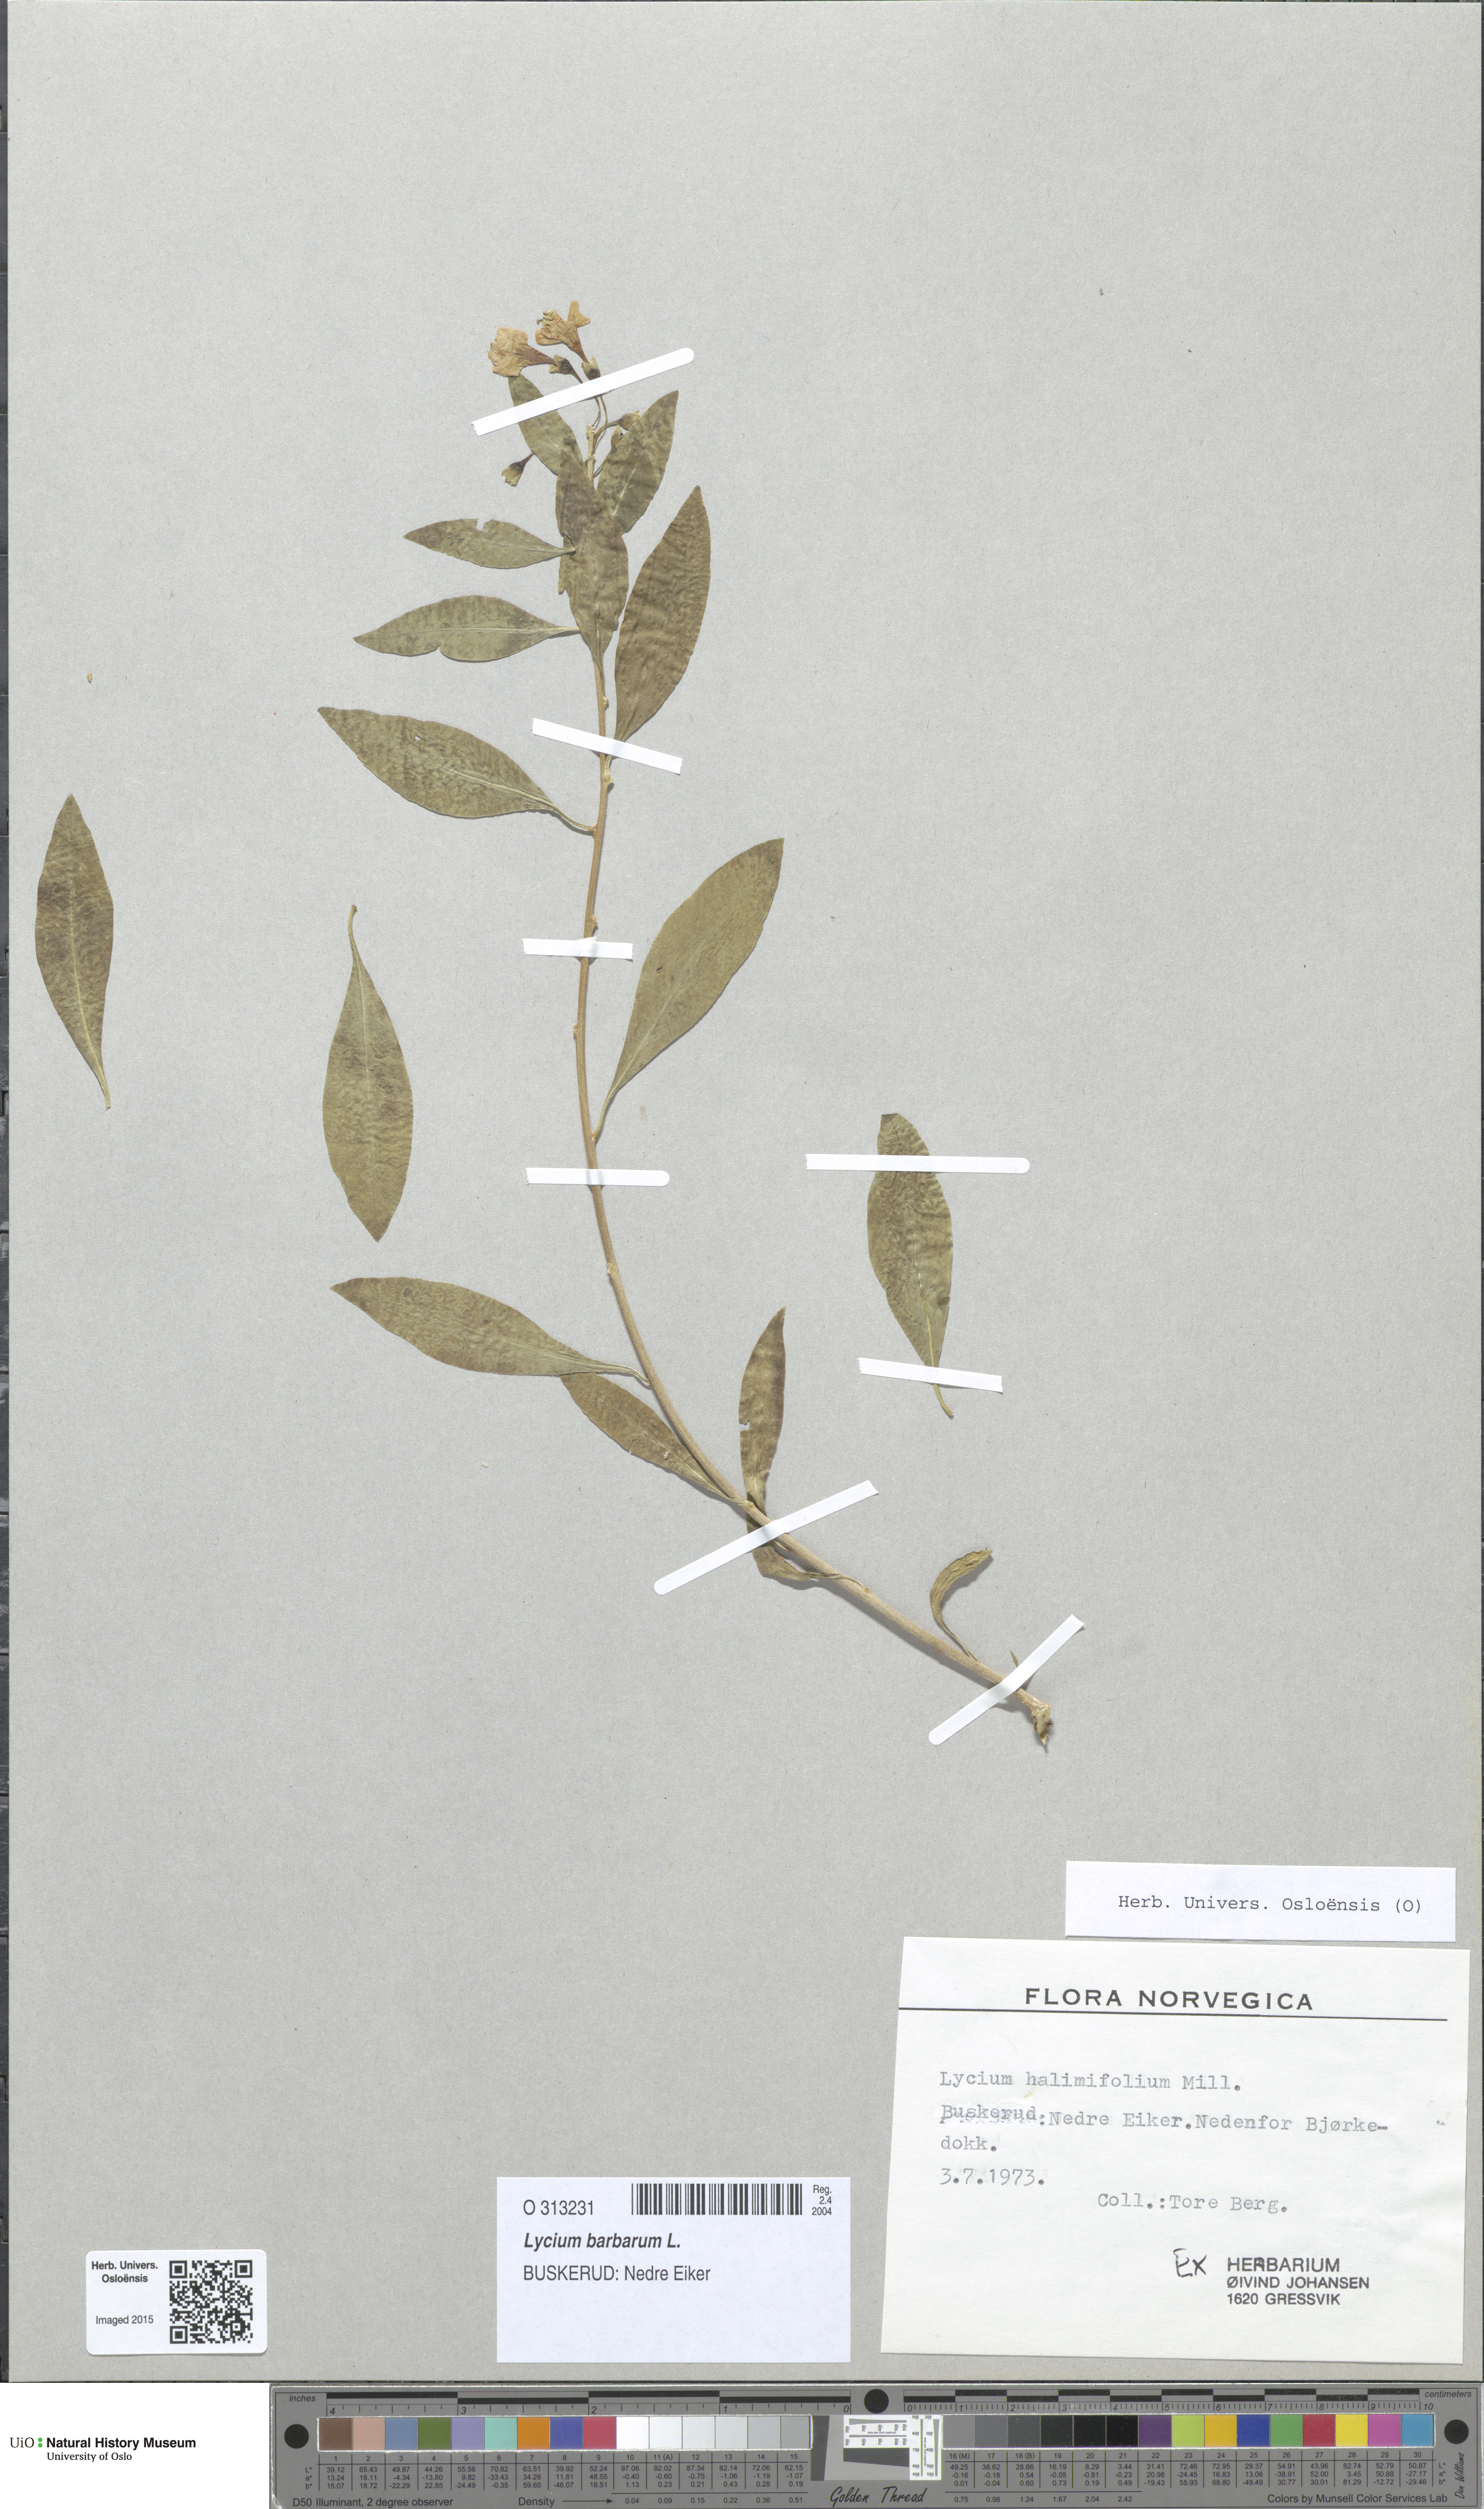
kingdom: Plantae
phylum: Tracheophyta
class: Magnoliopsida
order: Solanales
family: Solanaceae
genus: Lycium
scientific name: Lycium barbarum
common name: Duke of argyll's teaplant
